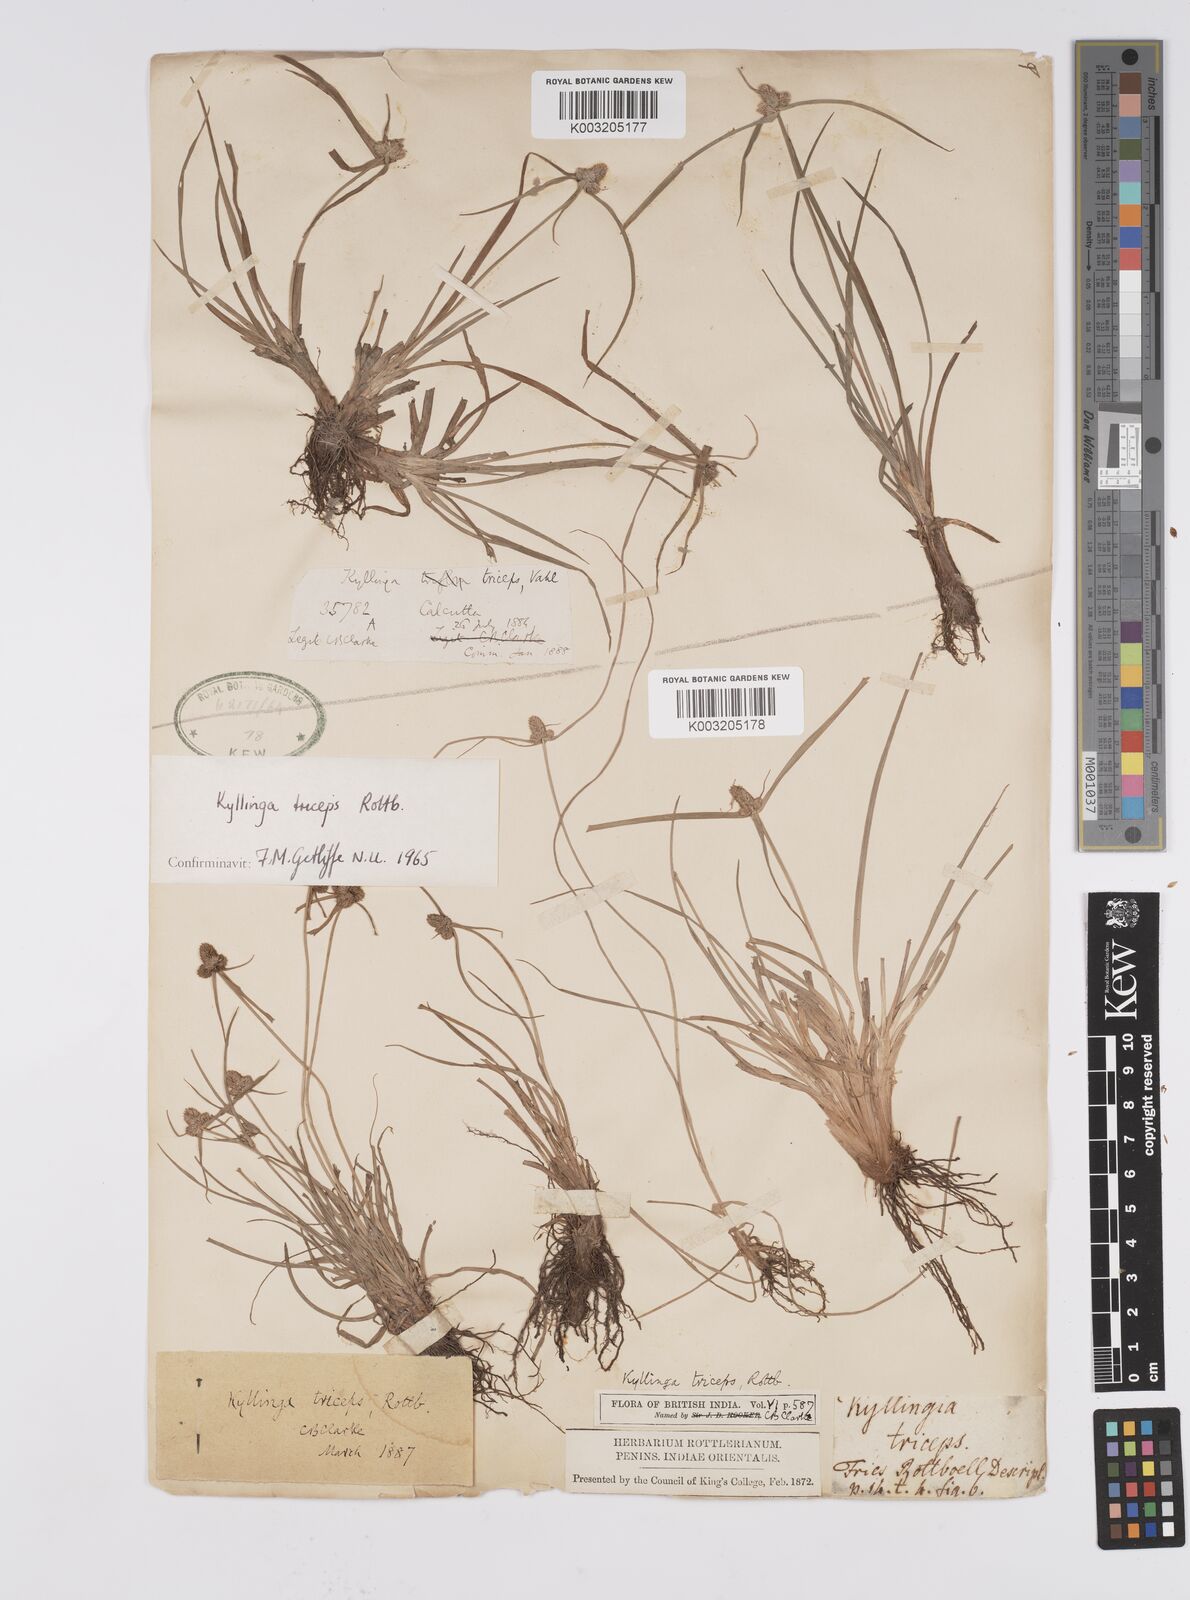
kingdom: Plantae
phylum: Tracheophyta
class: Liliopsida
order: Poales
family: Cyperaceae
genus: Cyperus
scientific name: Cyperus
